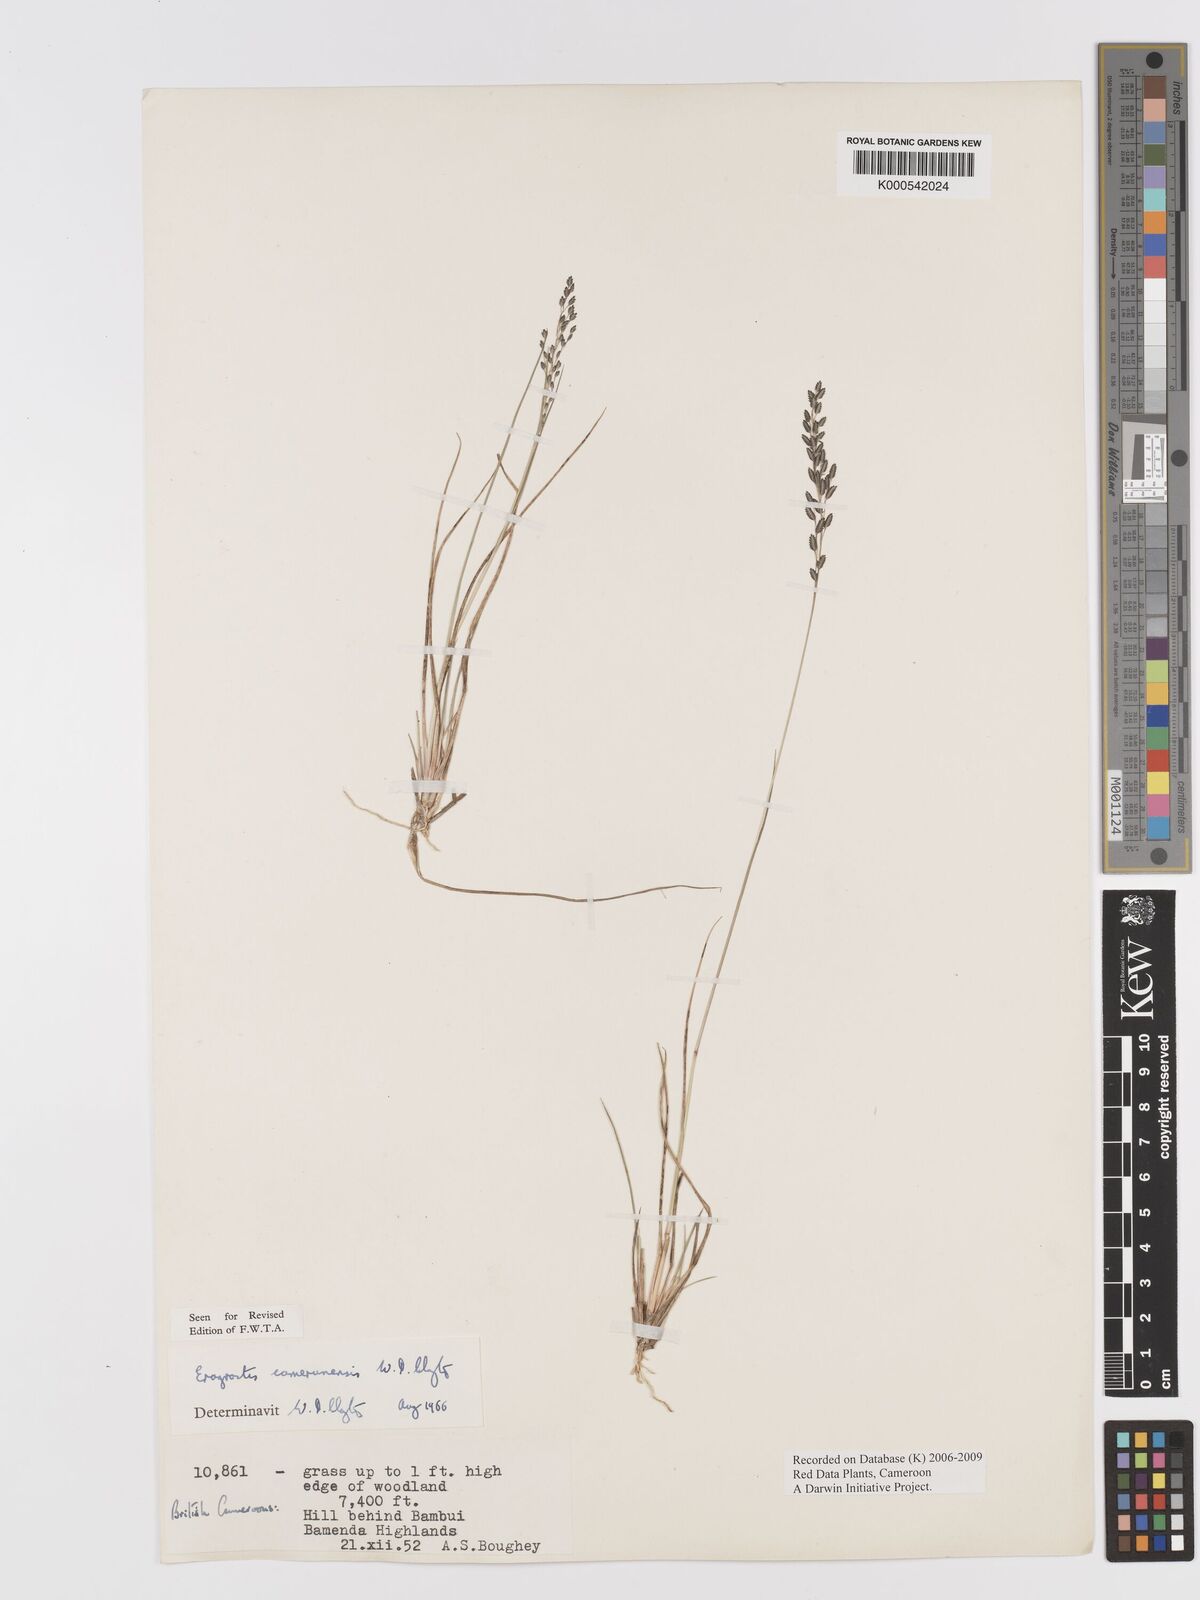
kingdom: Plantae
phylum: Tracheophyta
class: Liliopsida
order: Poales
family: Poaceae
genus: Eragrostis
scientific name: Eragrostis camerunensis
